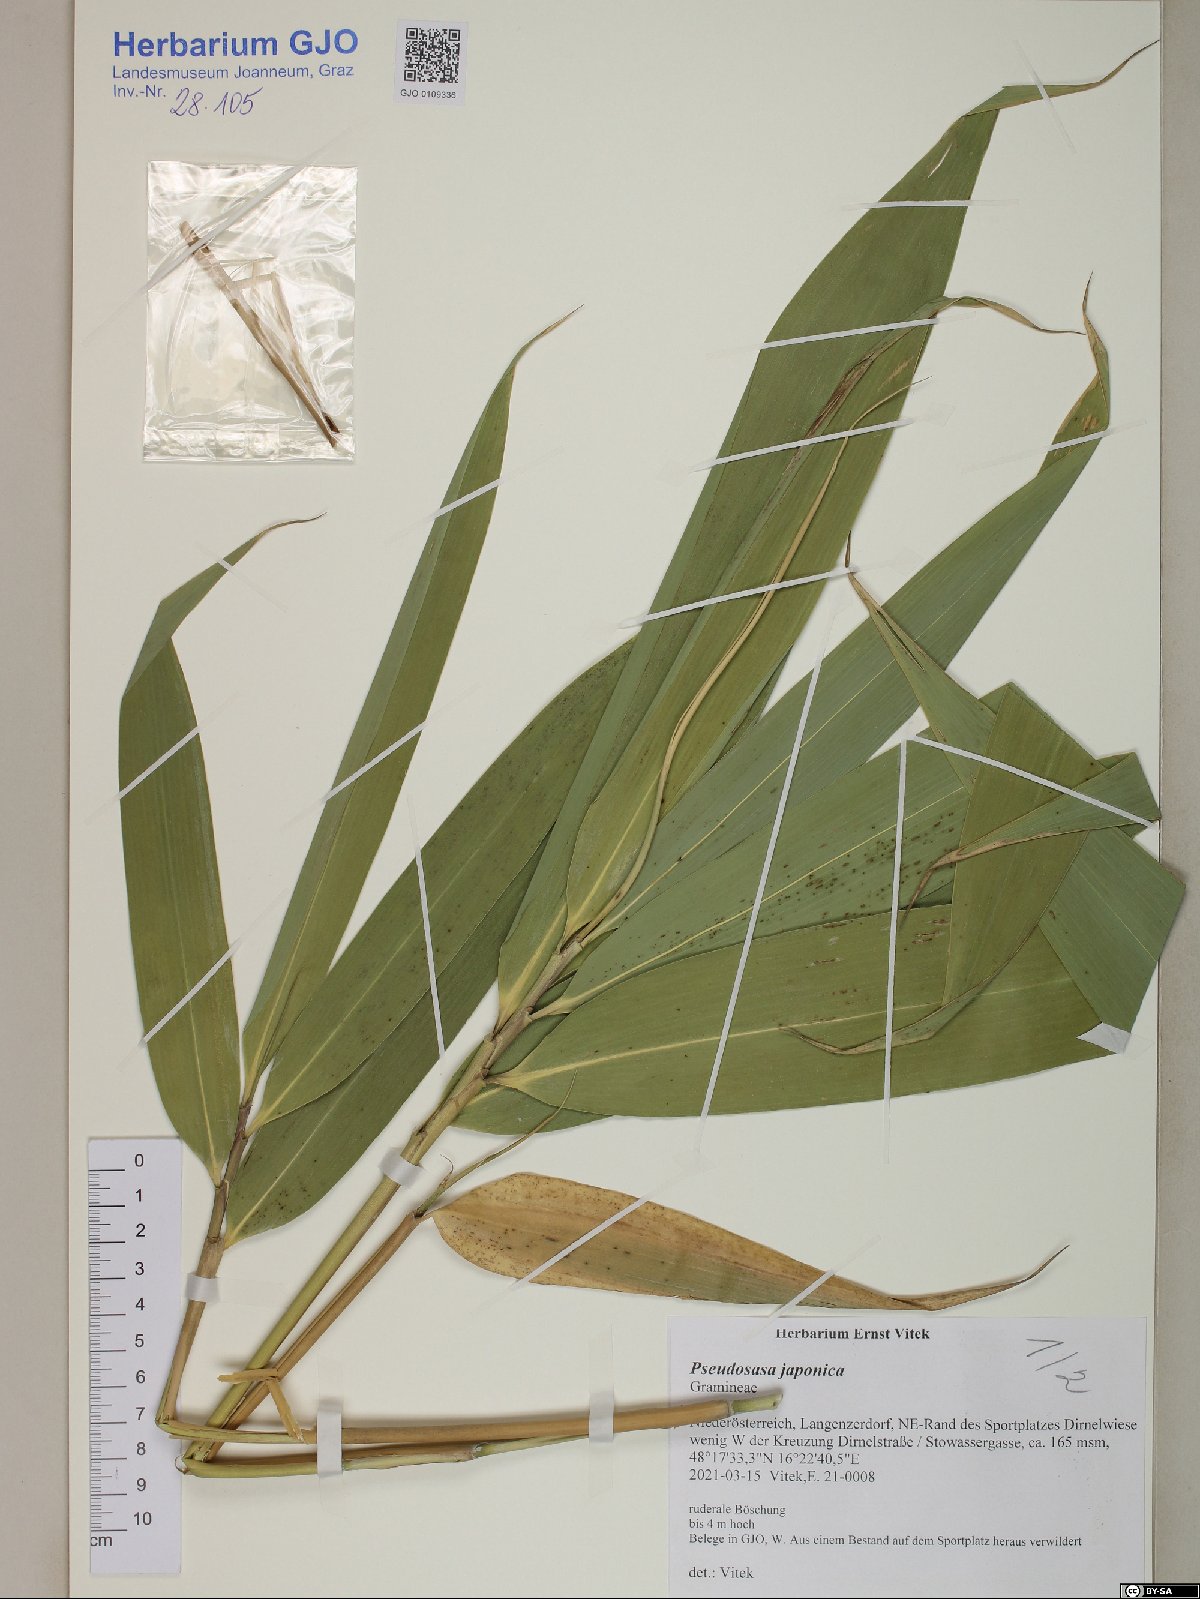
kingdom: Plantae
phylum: Tracheophyta
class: Liliopsida
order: Poales
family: Poaceae
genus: Pseudosasa
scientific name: Pseudosasa japonica
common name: Arrow bamboo
